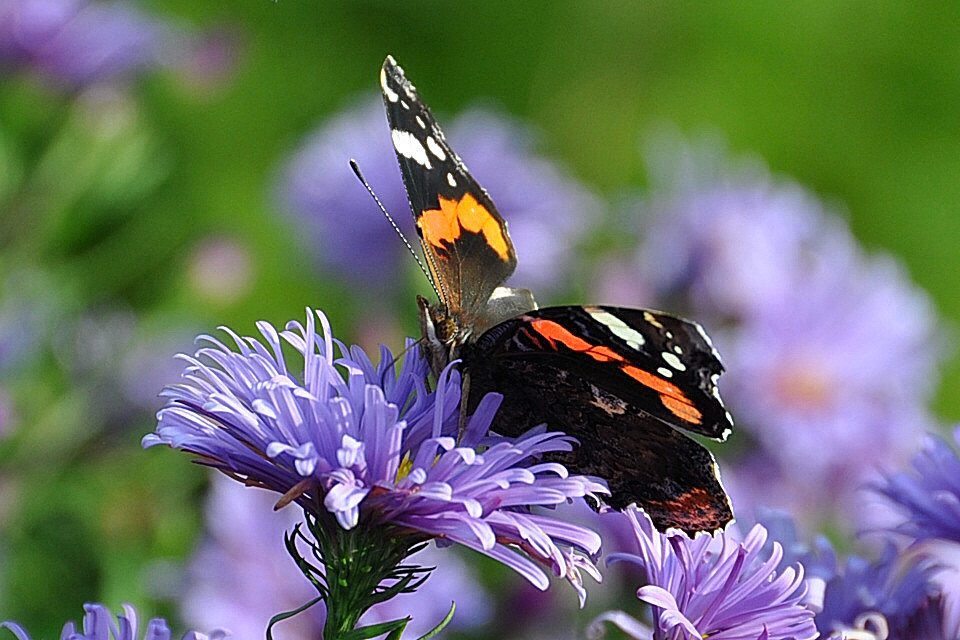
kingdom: Animalia
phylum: Arthropoda
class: Insecta
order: Lepidoptera
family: Nymphalidae
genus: Vanessa
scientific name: Vanessa atalanta
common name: Red admiral
